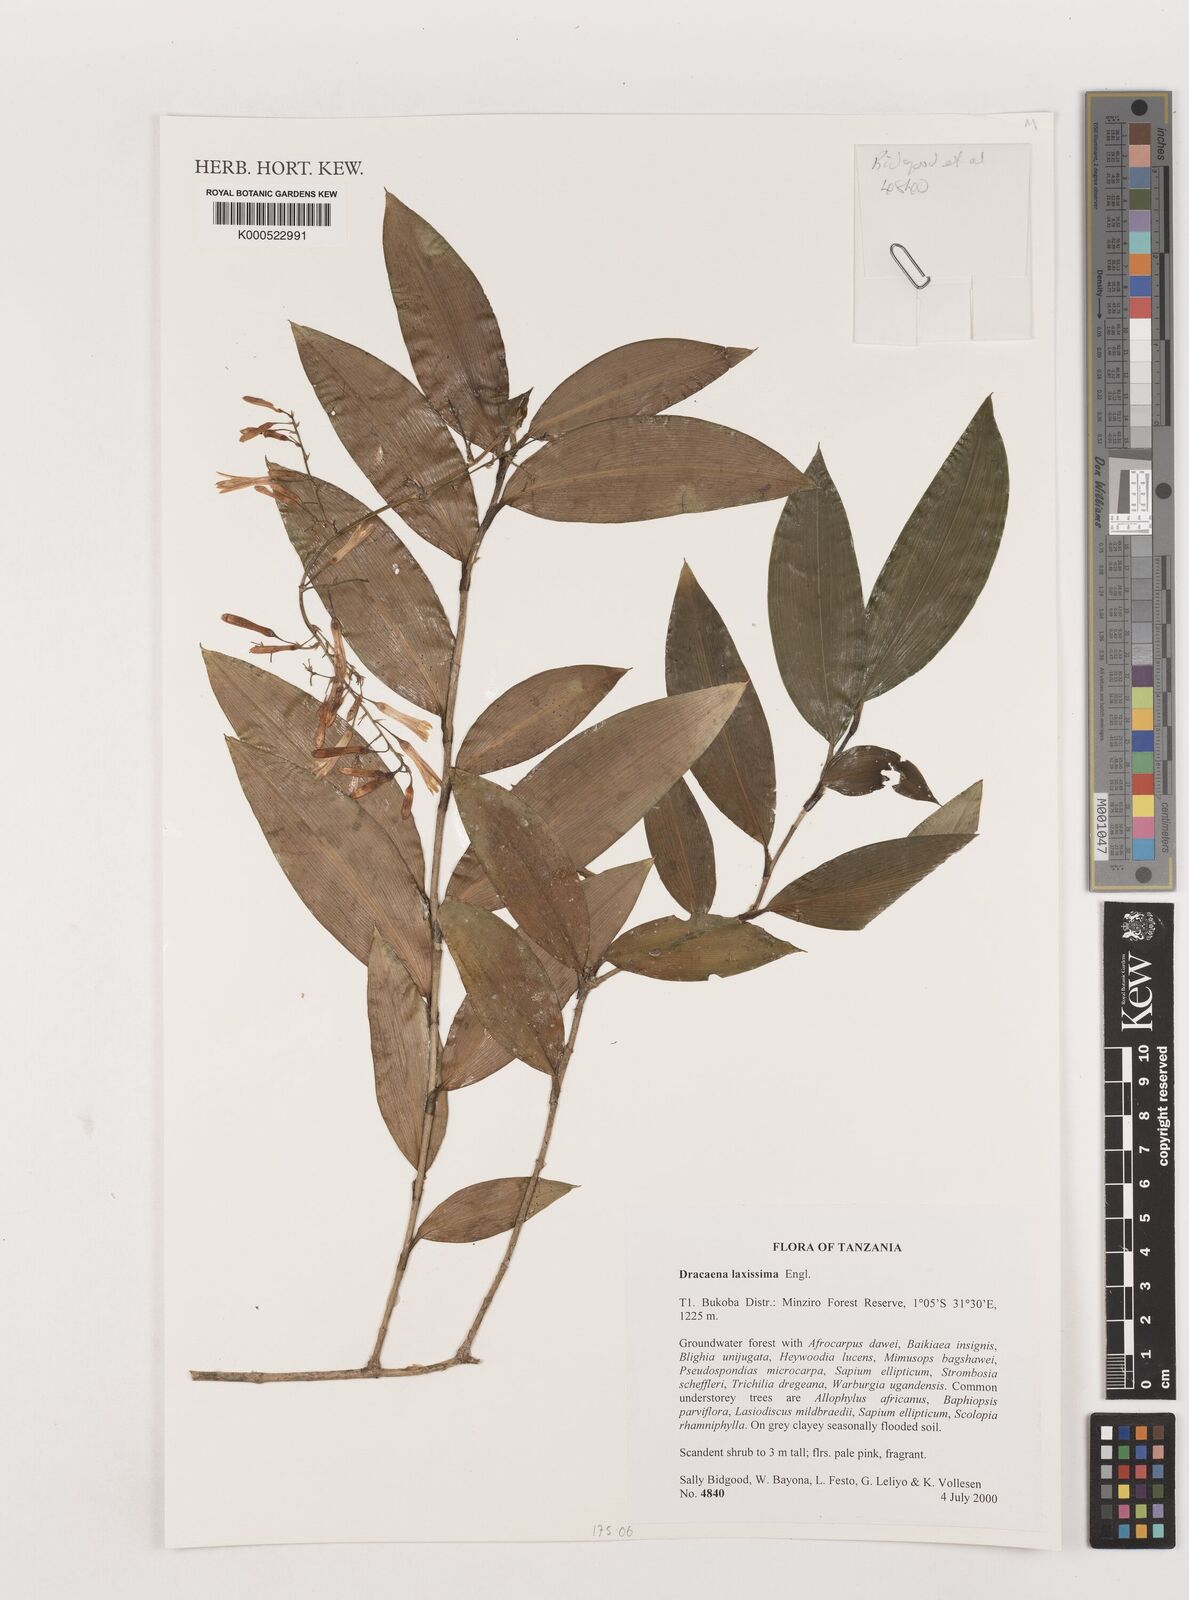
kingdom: Plantae
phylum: Tracheophyta
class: Liliopsida
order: Asparagales
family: Asparagaceae
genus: Dracaena
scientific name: Dracaena laxissima
